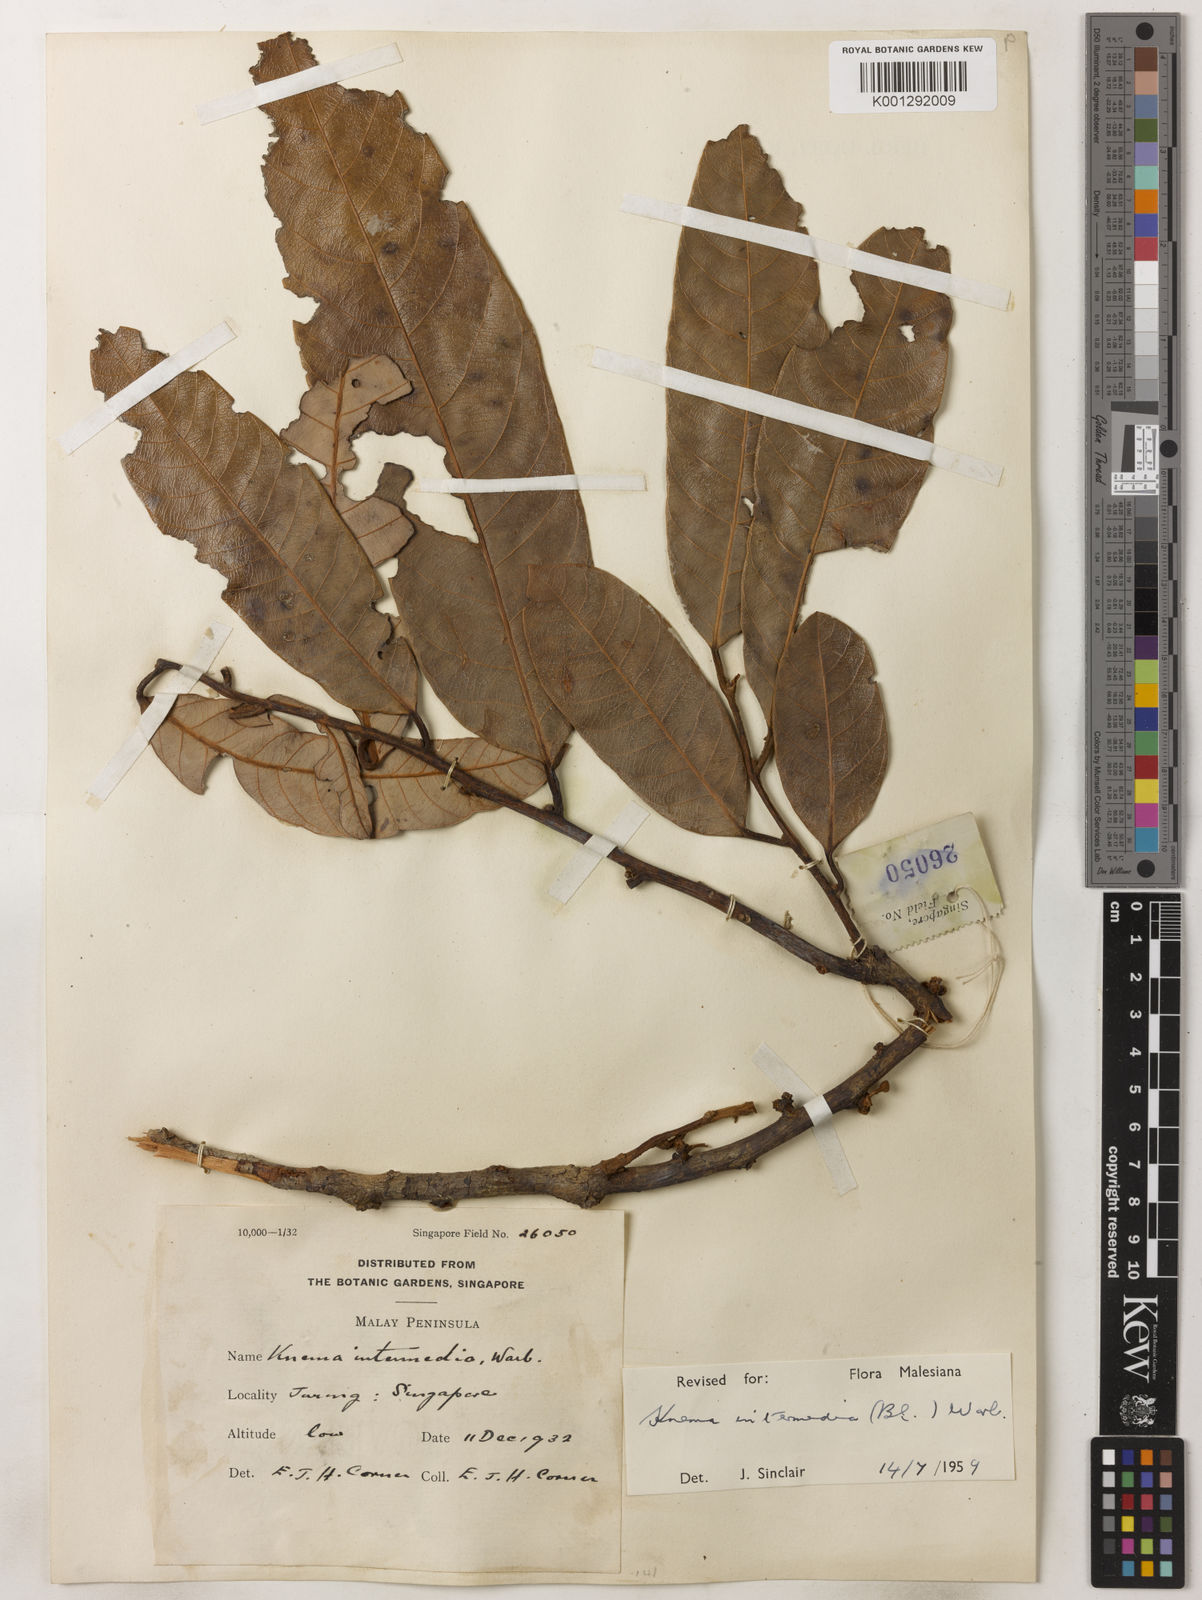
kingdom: Plantae
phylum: Tracheophyta
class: Magnoliopsida
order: Magnoliales
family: Myristicaceae
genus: Knema
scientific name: Knema intermedia
